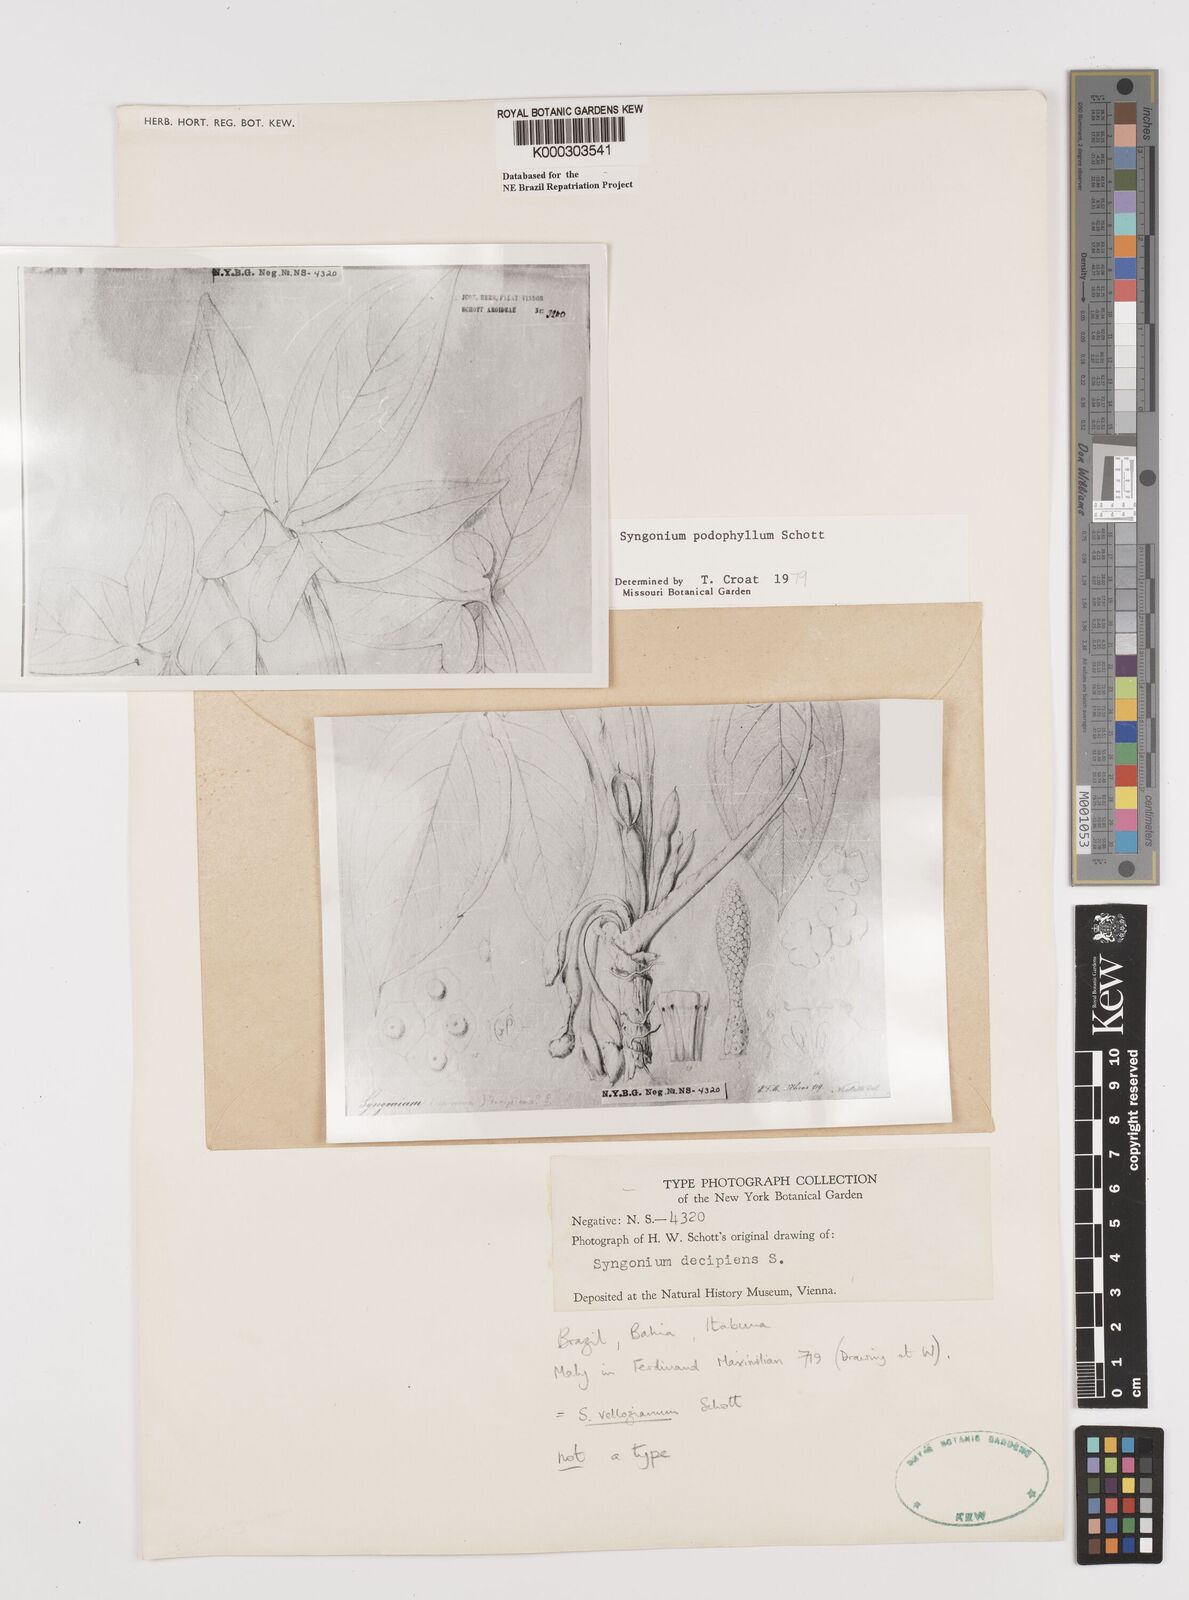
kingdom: Plantae
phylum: Tracheophyta
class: Liliopsida
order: Alismatales
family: Araceae
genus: Syngonium
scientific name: Syngonium podophyllum
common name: American evergreen
